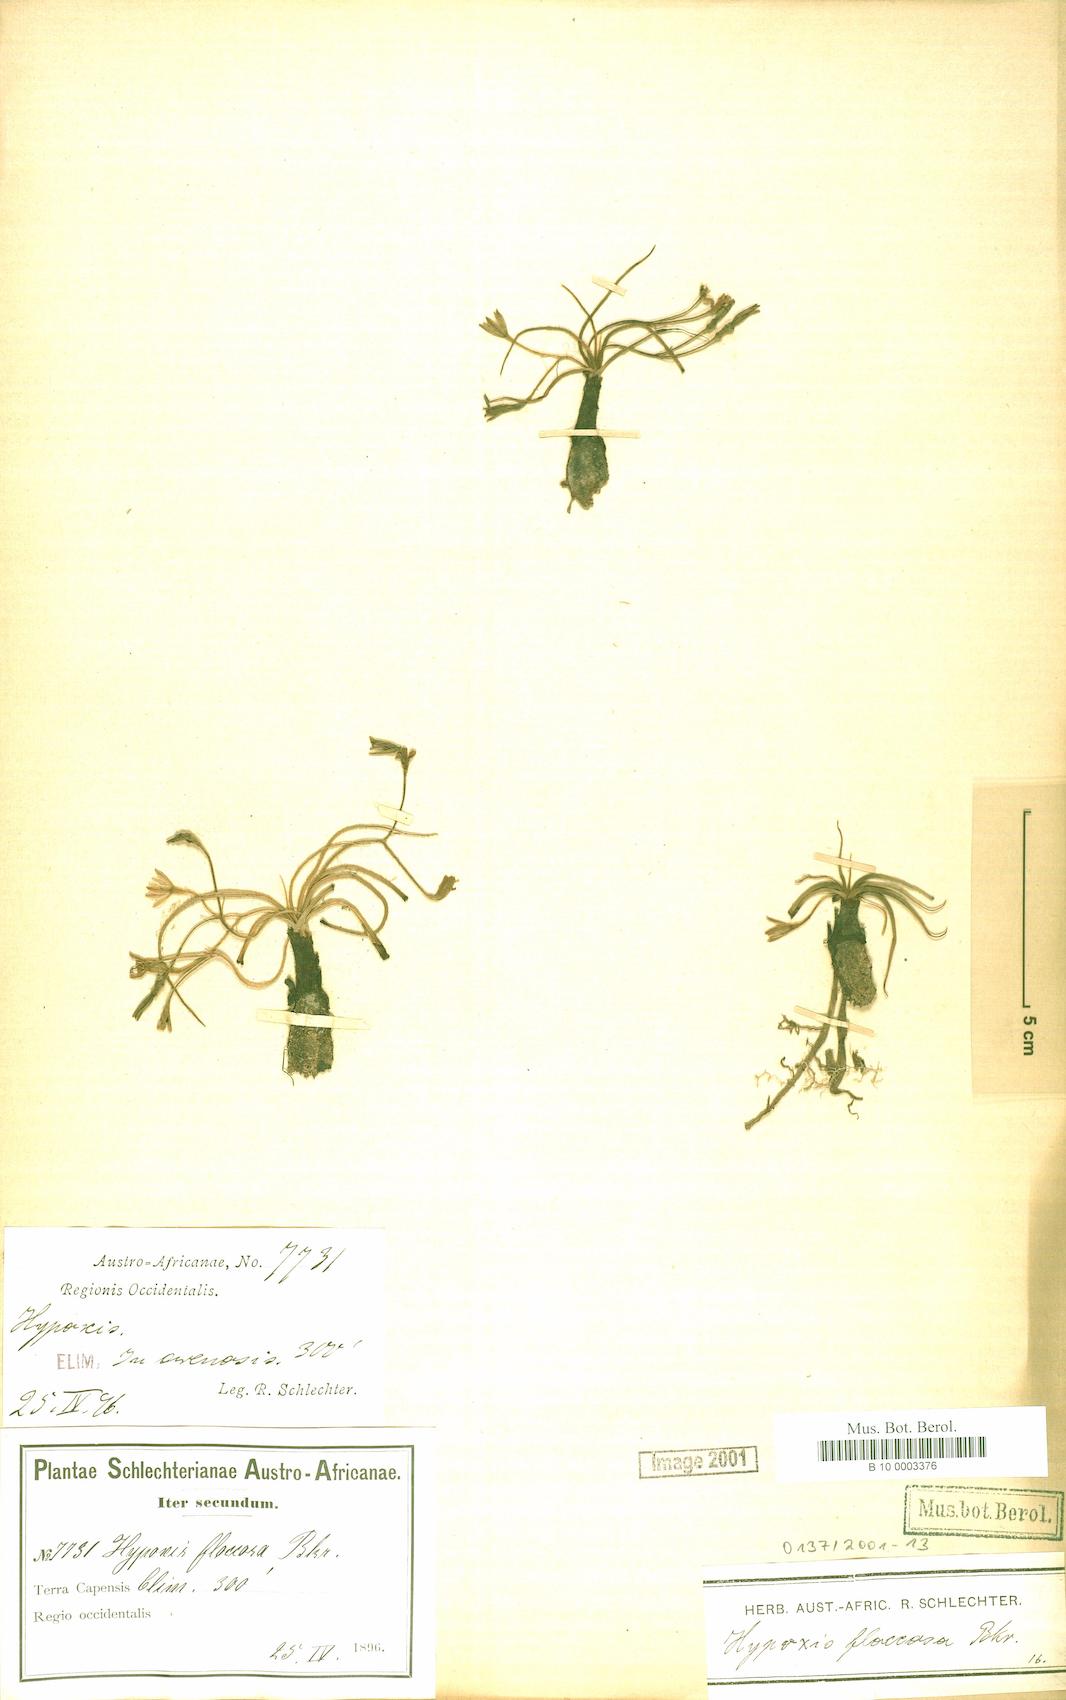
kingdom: Plantae
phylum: Tracheophyta
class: Liliopsida
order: Asparagales
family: Hypoxidaceae
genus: Hypoxis
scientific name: Hypoxis floccosa
